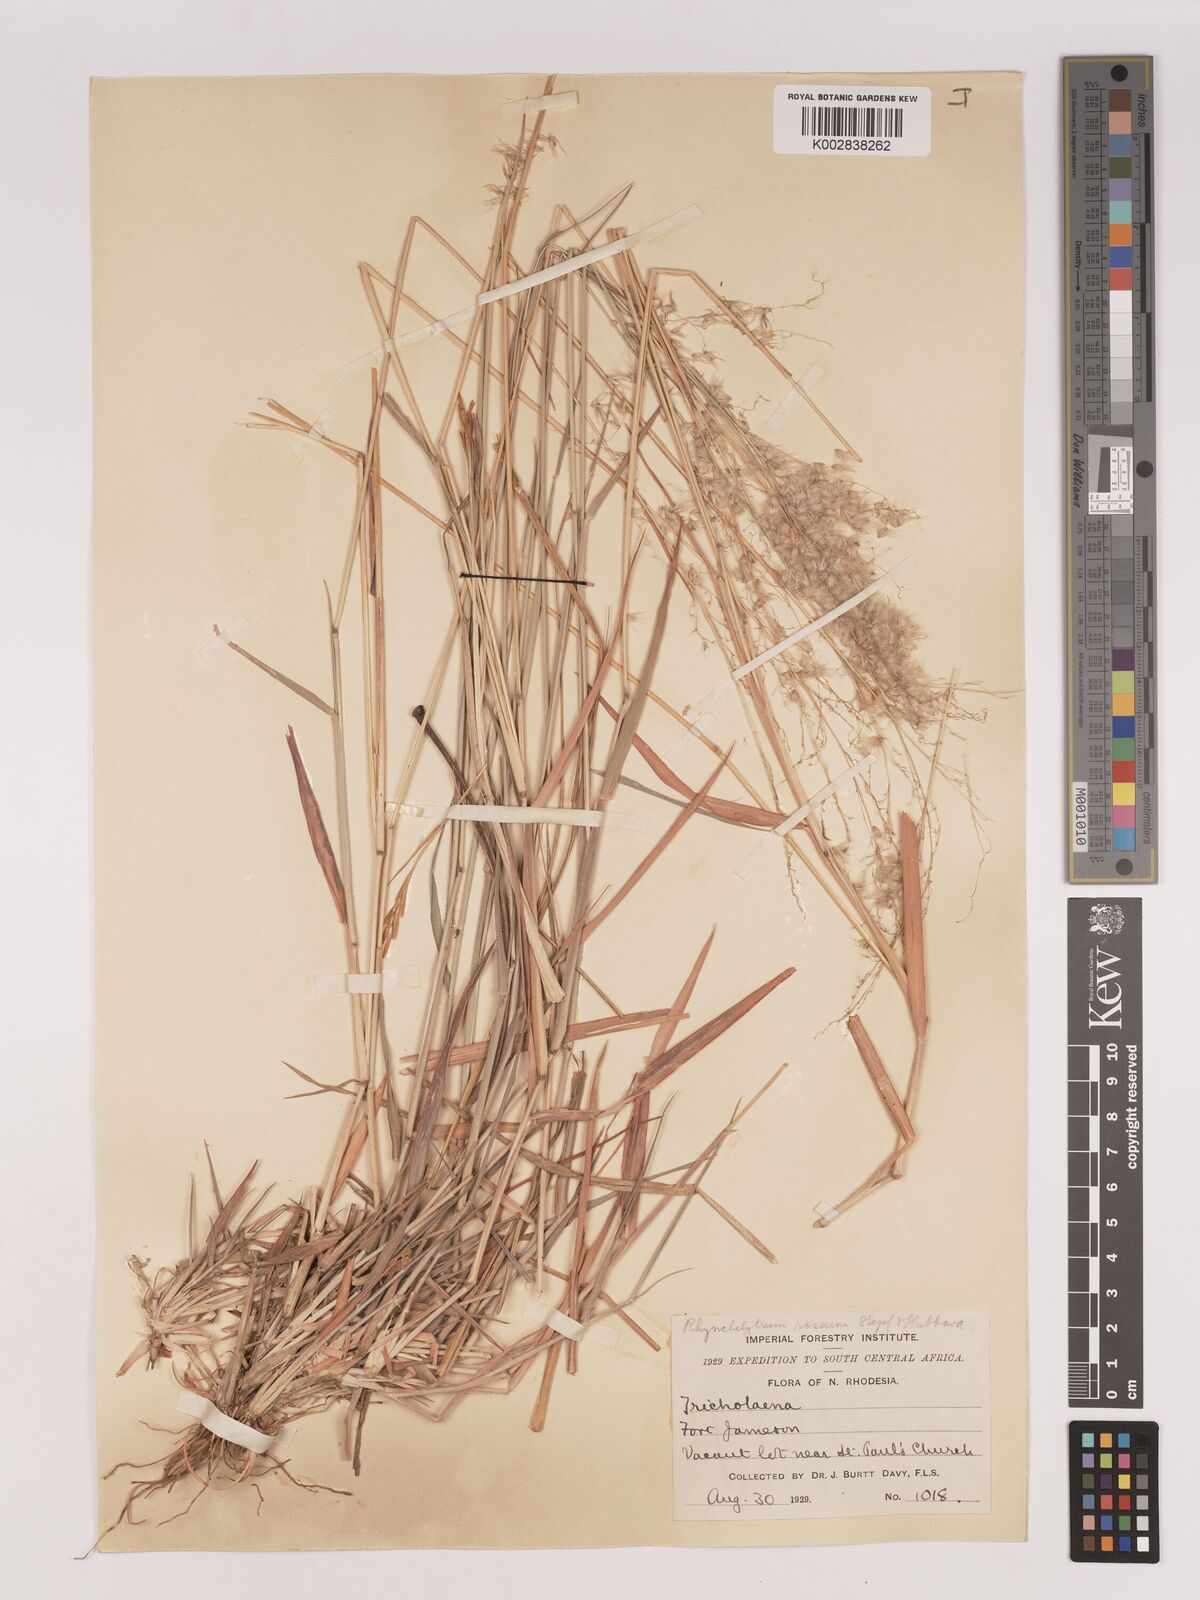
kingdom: Plantae
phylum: Tracheophyta
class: Liliopsida
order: Poales
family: Poaceae
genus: Melinis
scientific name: Melinis repens
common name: Rose natal grass
